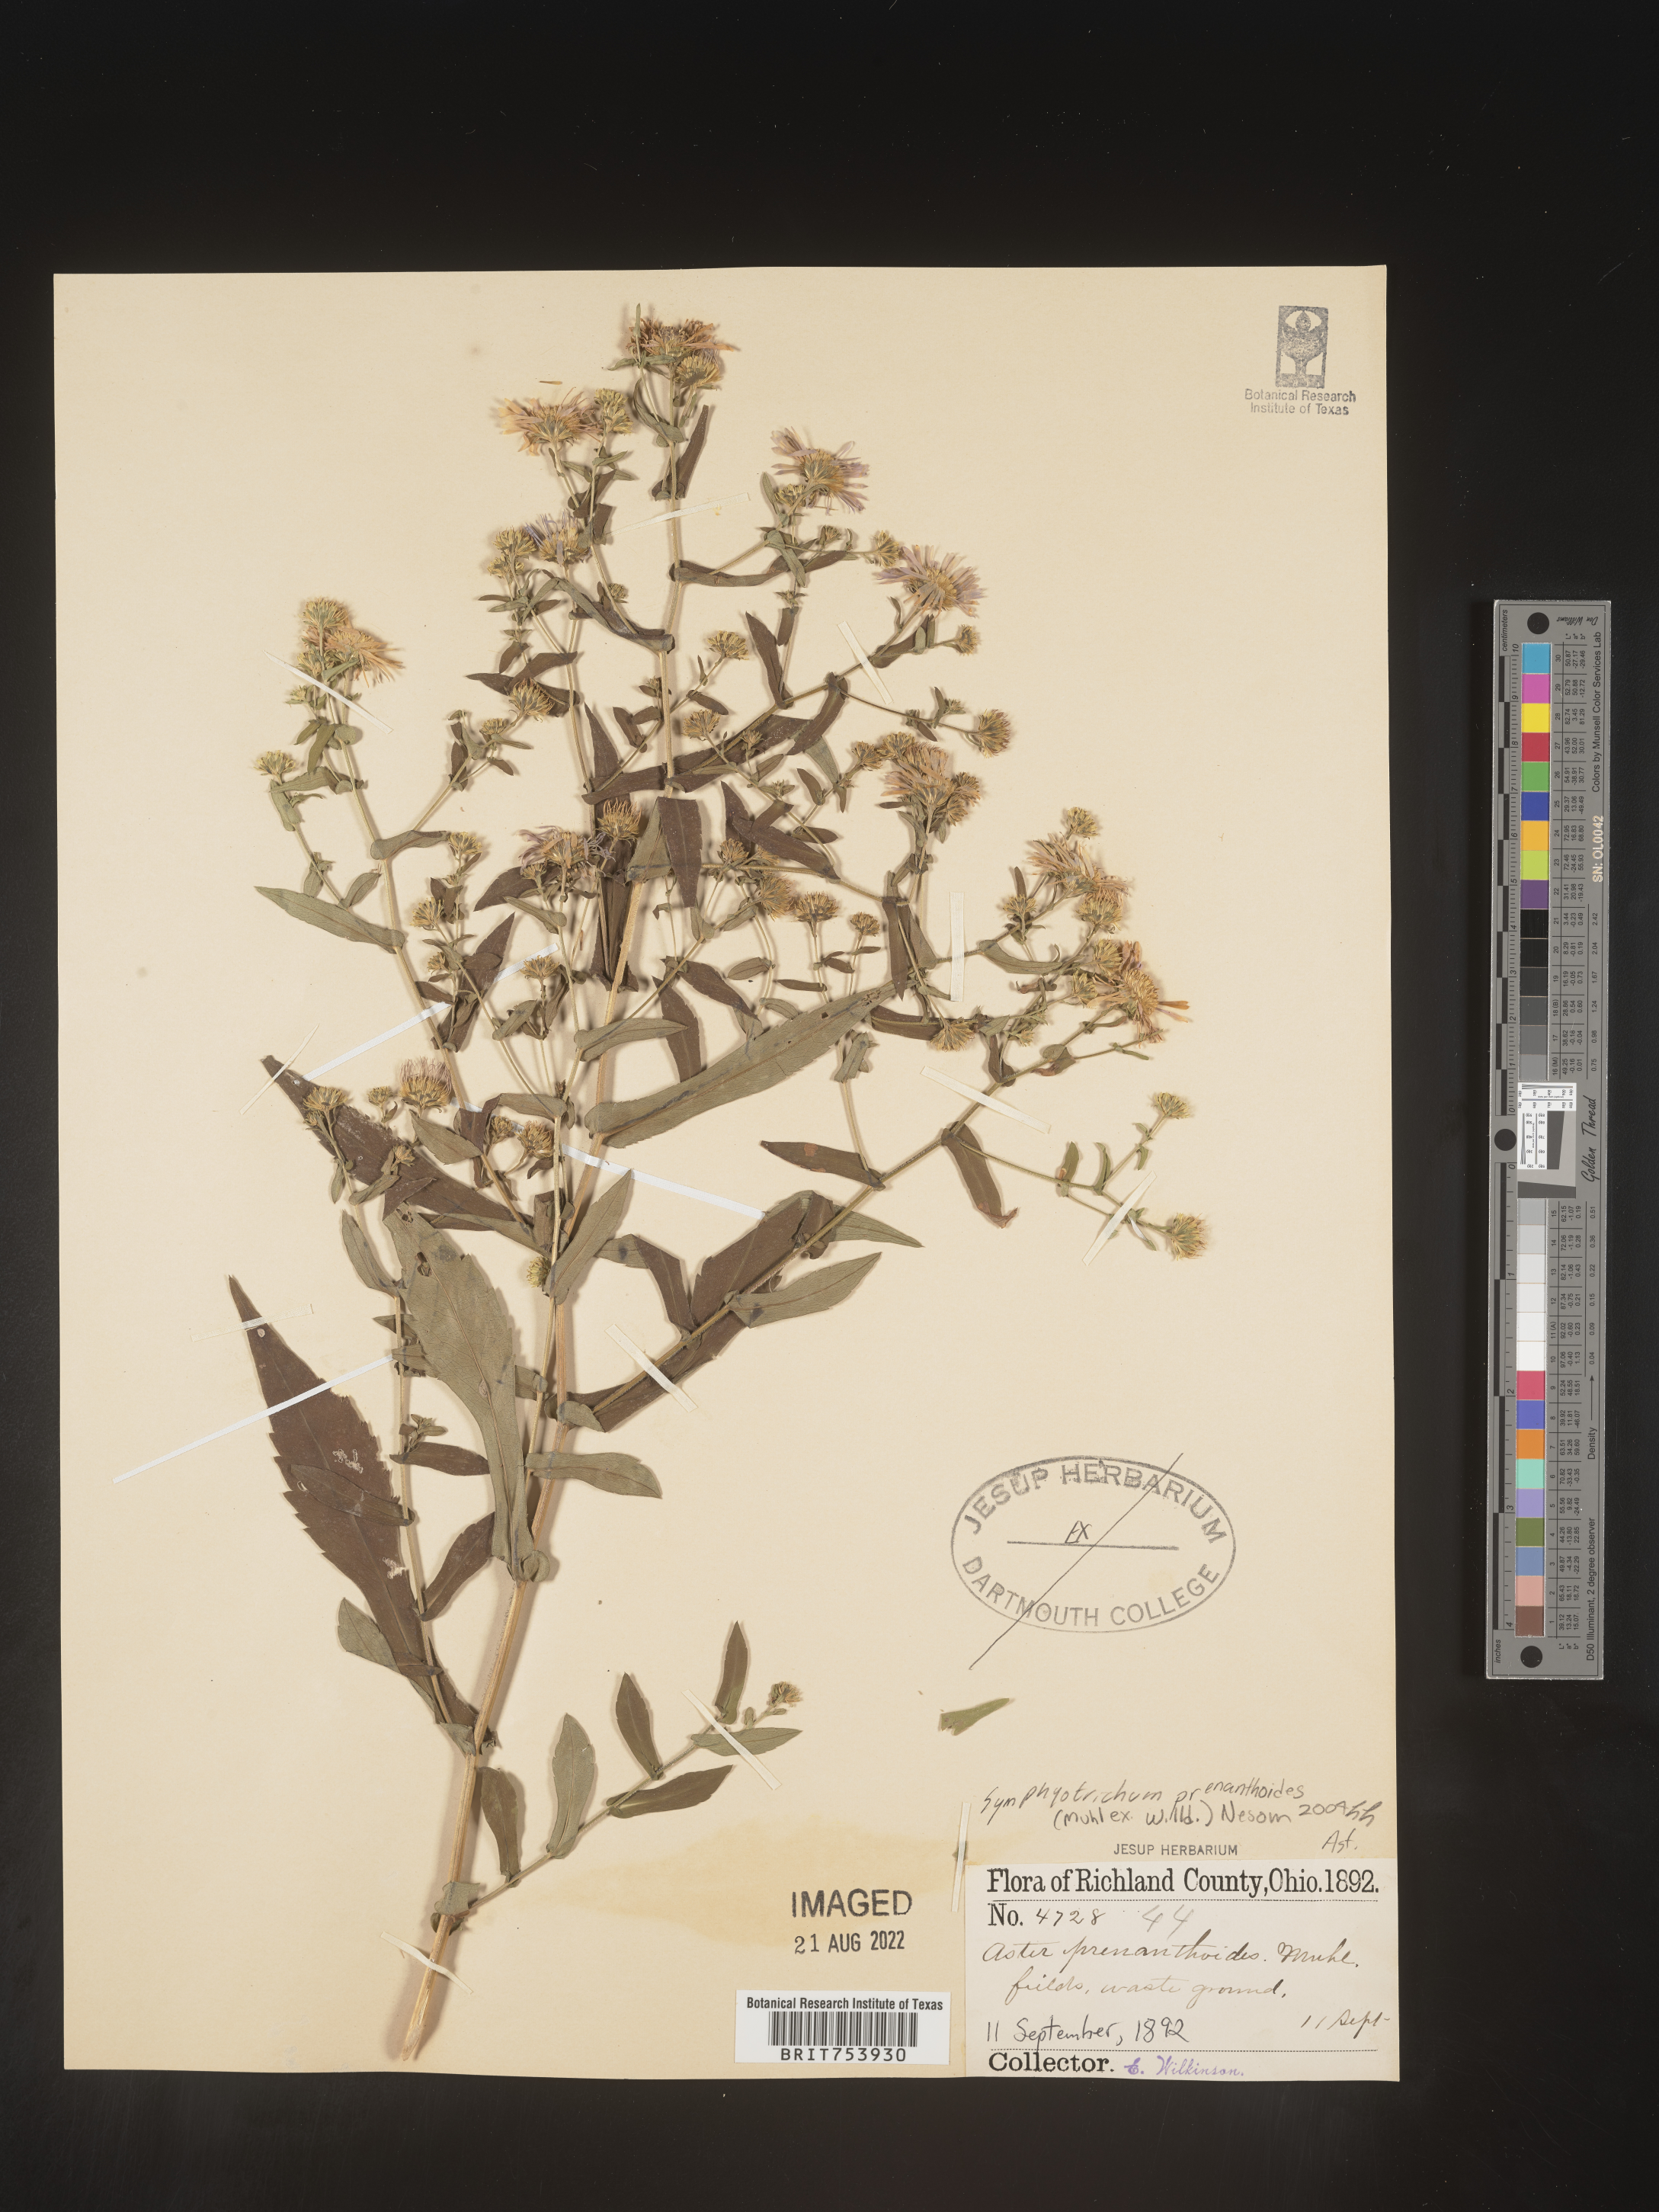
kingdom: Plantae
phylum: Tracheophyta
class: Magnoliopsida
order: Asterales
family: Asteraceae
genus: Symphyotrichum
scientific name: Symphyotrichum prenanthoides
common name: Crooked-stem aster
